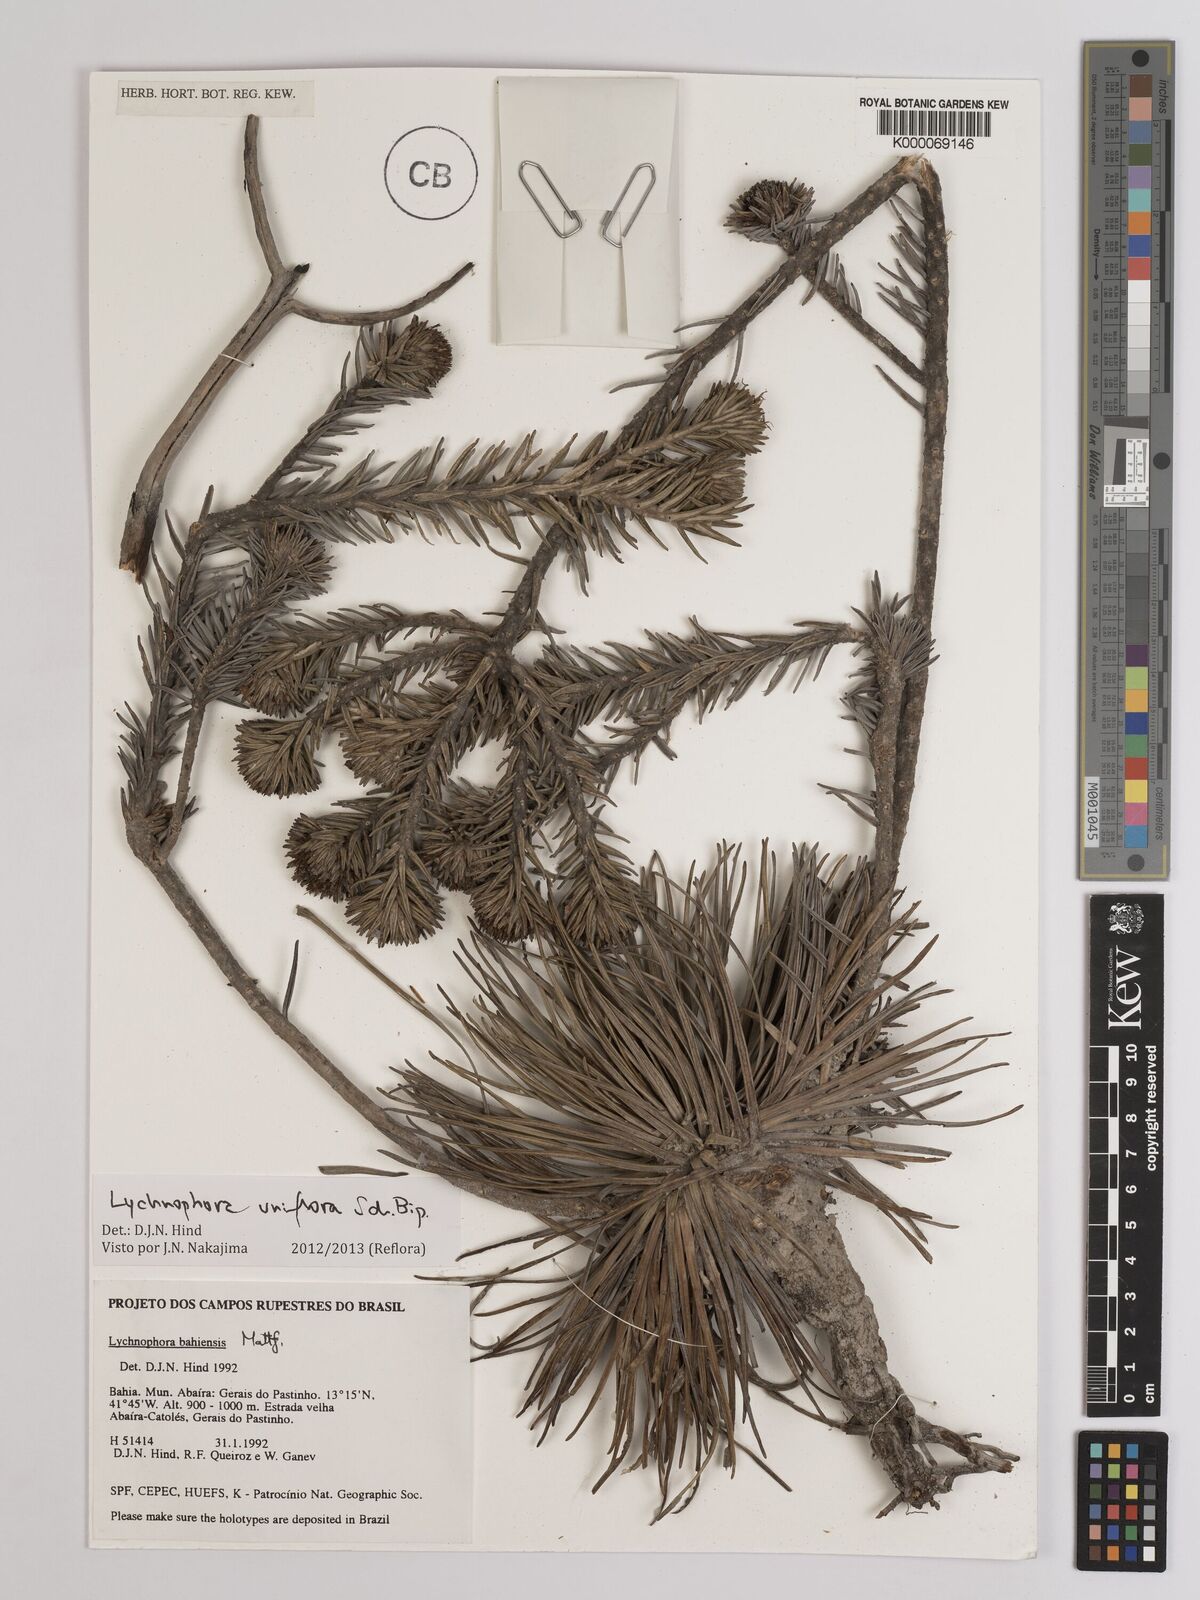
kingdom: Plantae
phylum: Tracheophyta
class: Magnoliopsida
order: Asterales
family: Asteraceae
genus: Lychnophora
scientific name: Lychnophora uniflora
